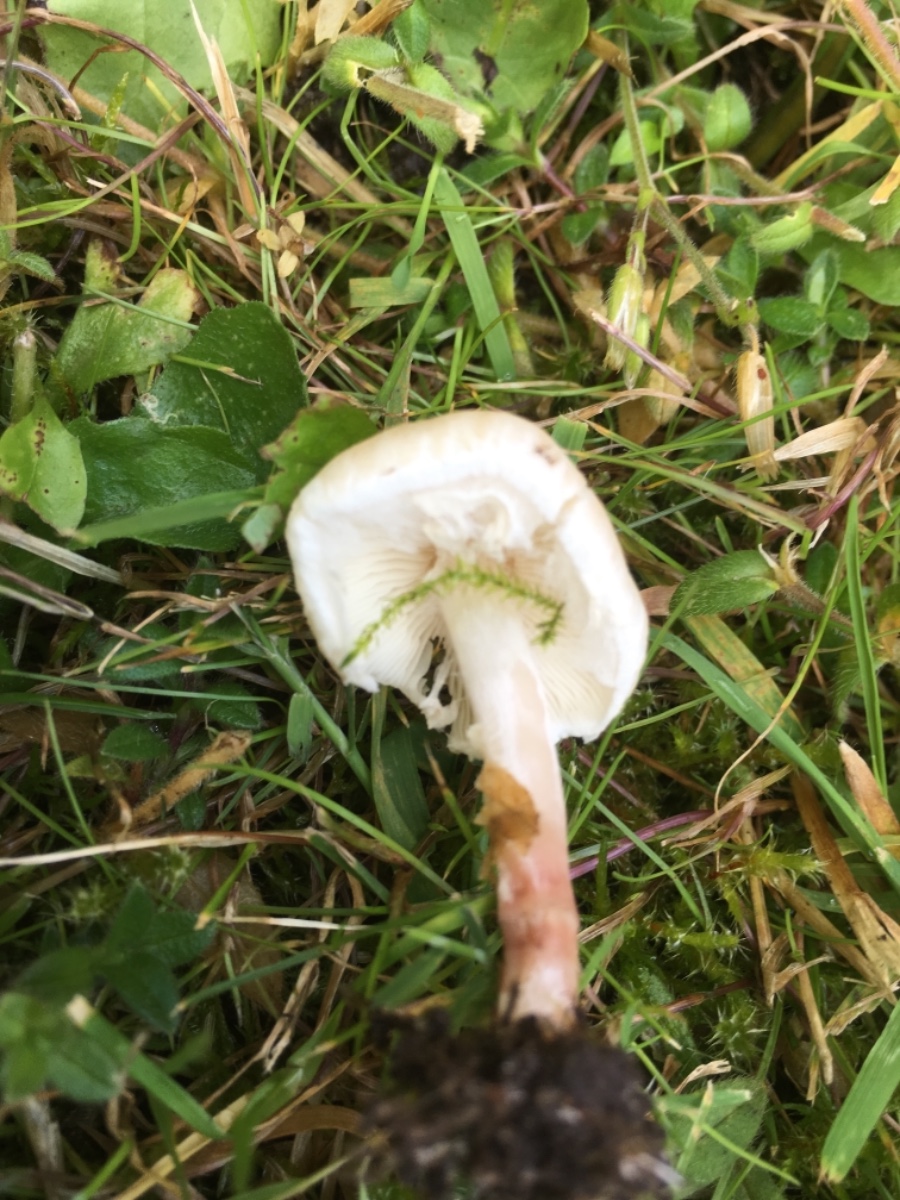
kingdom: Fungi
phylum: Basidiomycota
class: Agaricomycetes
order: Agaricales
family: Agaricaceae
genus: Lepiota
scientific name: Lepiota
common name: parasolhat
